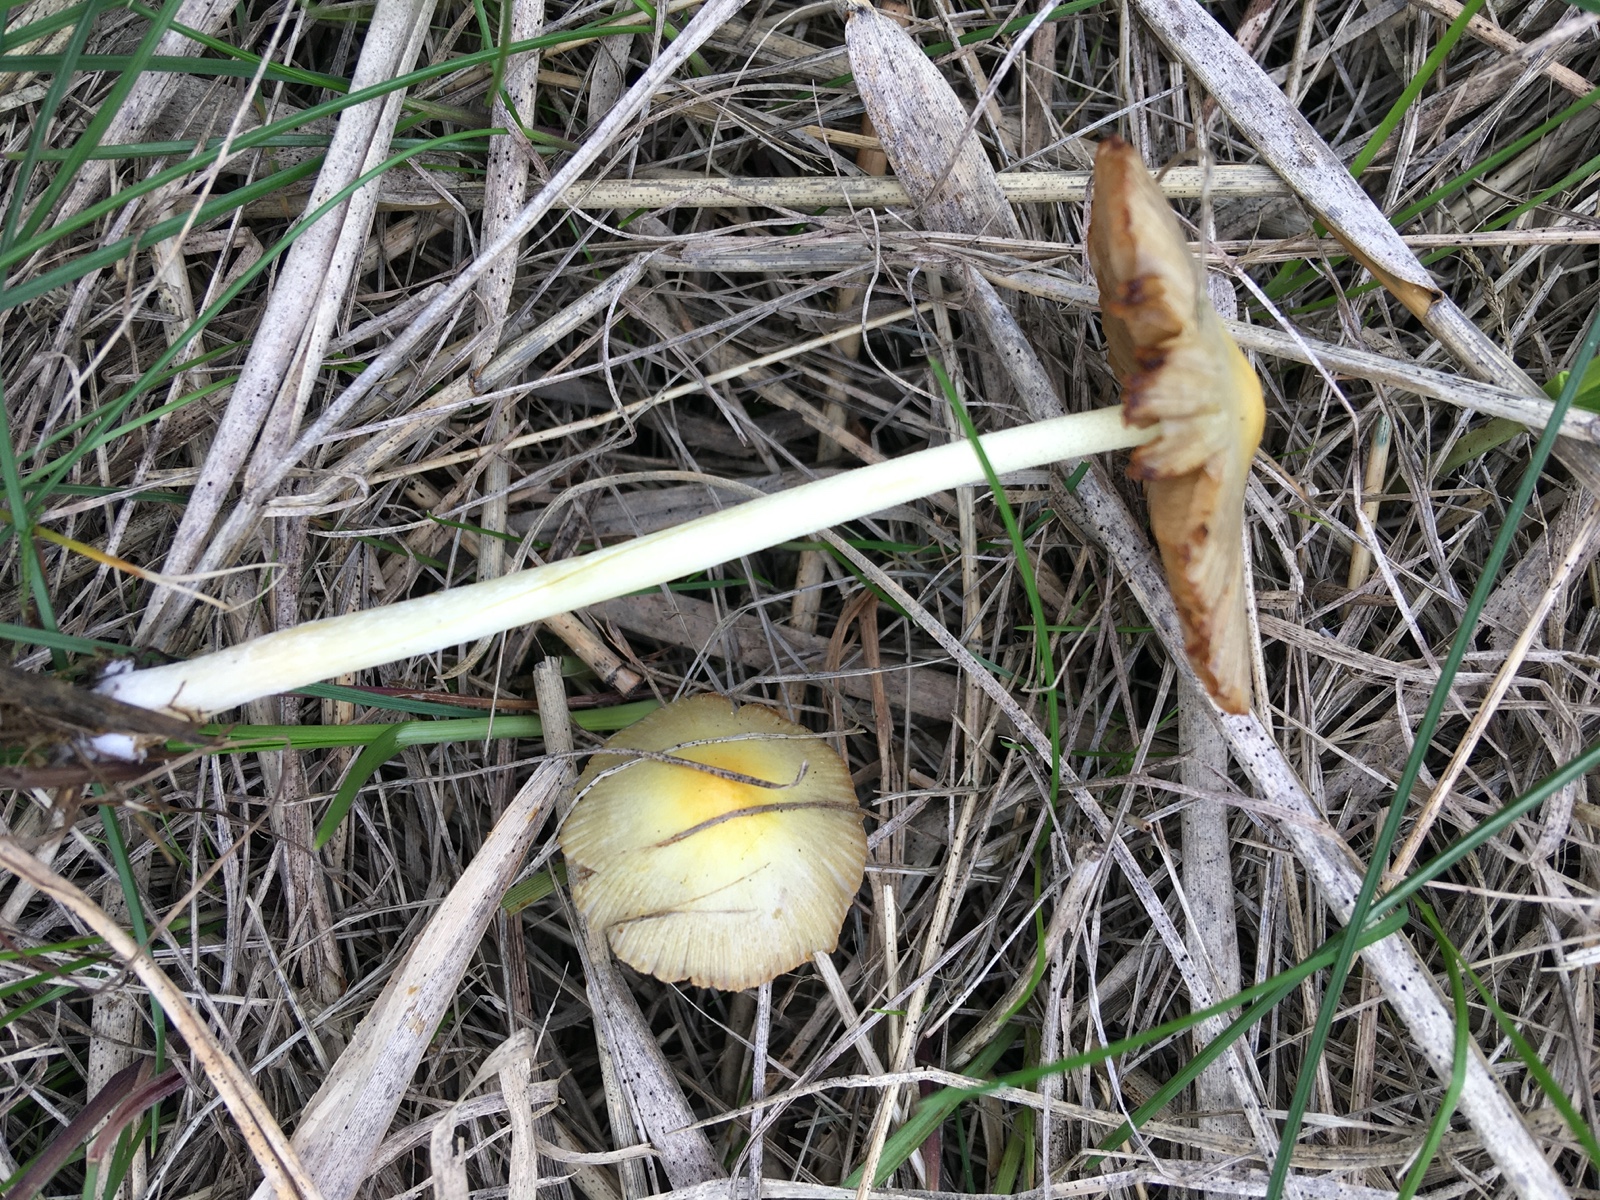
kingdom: Fungi
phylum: Basidiomycota
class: Agaricomycetes
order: Agaricales
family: Bolbitiaceae
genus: Bolbitius
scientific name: Bolbitius titubans
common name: almindelig gulhat
